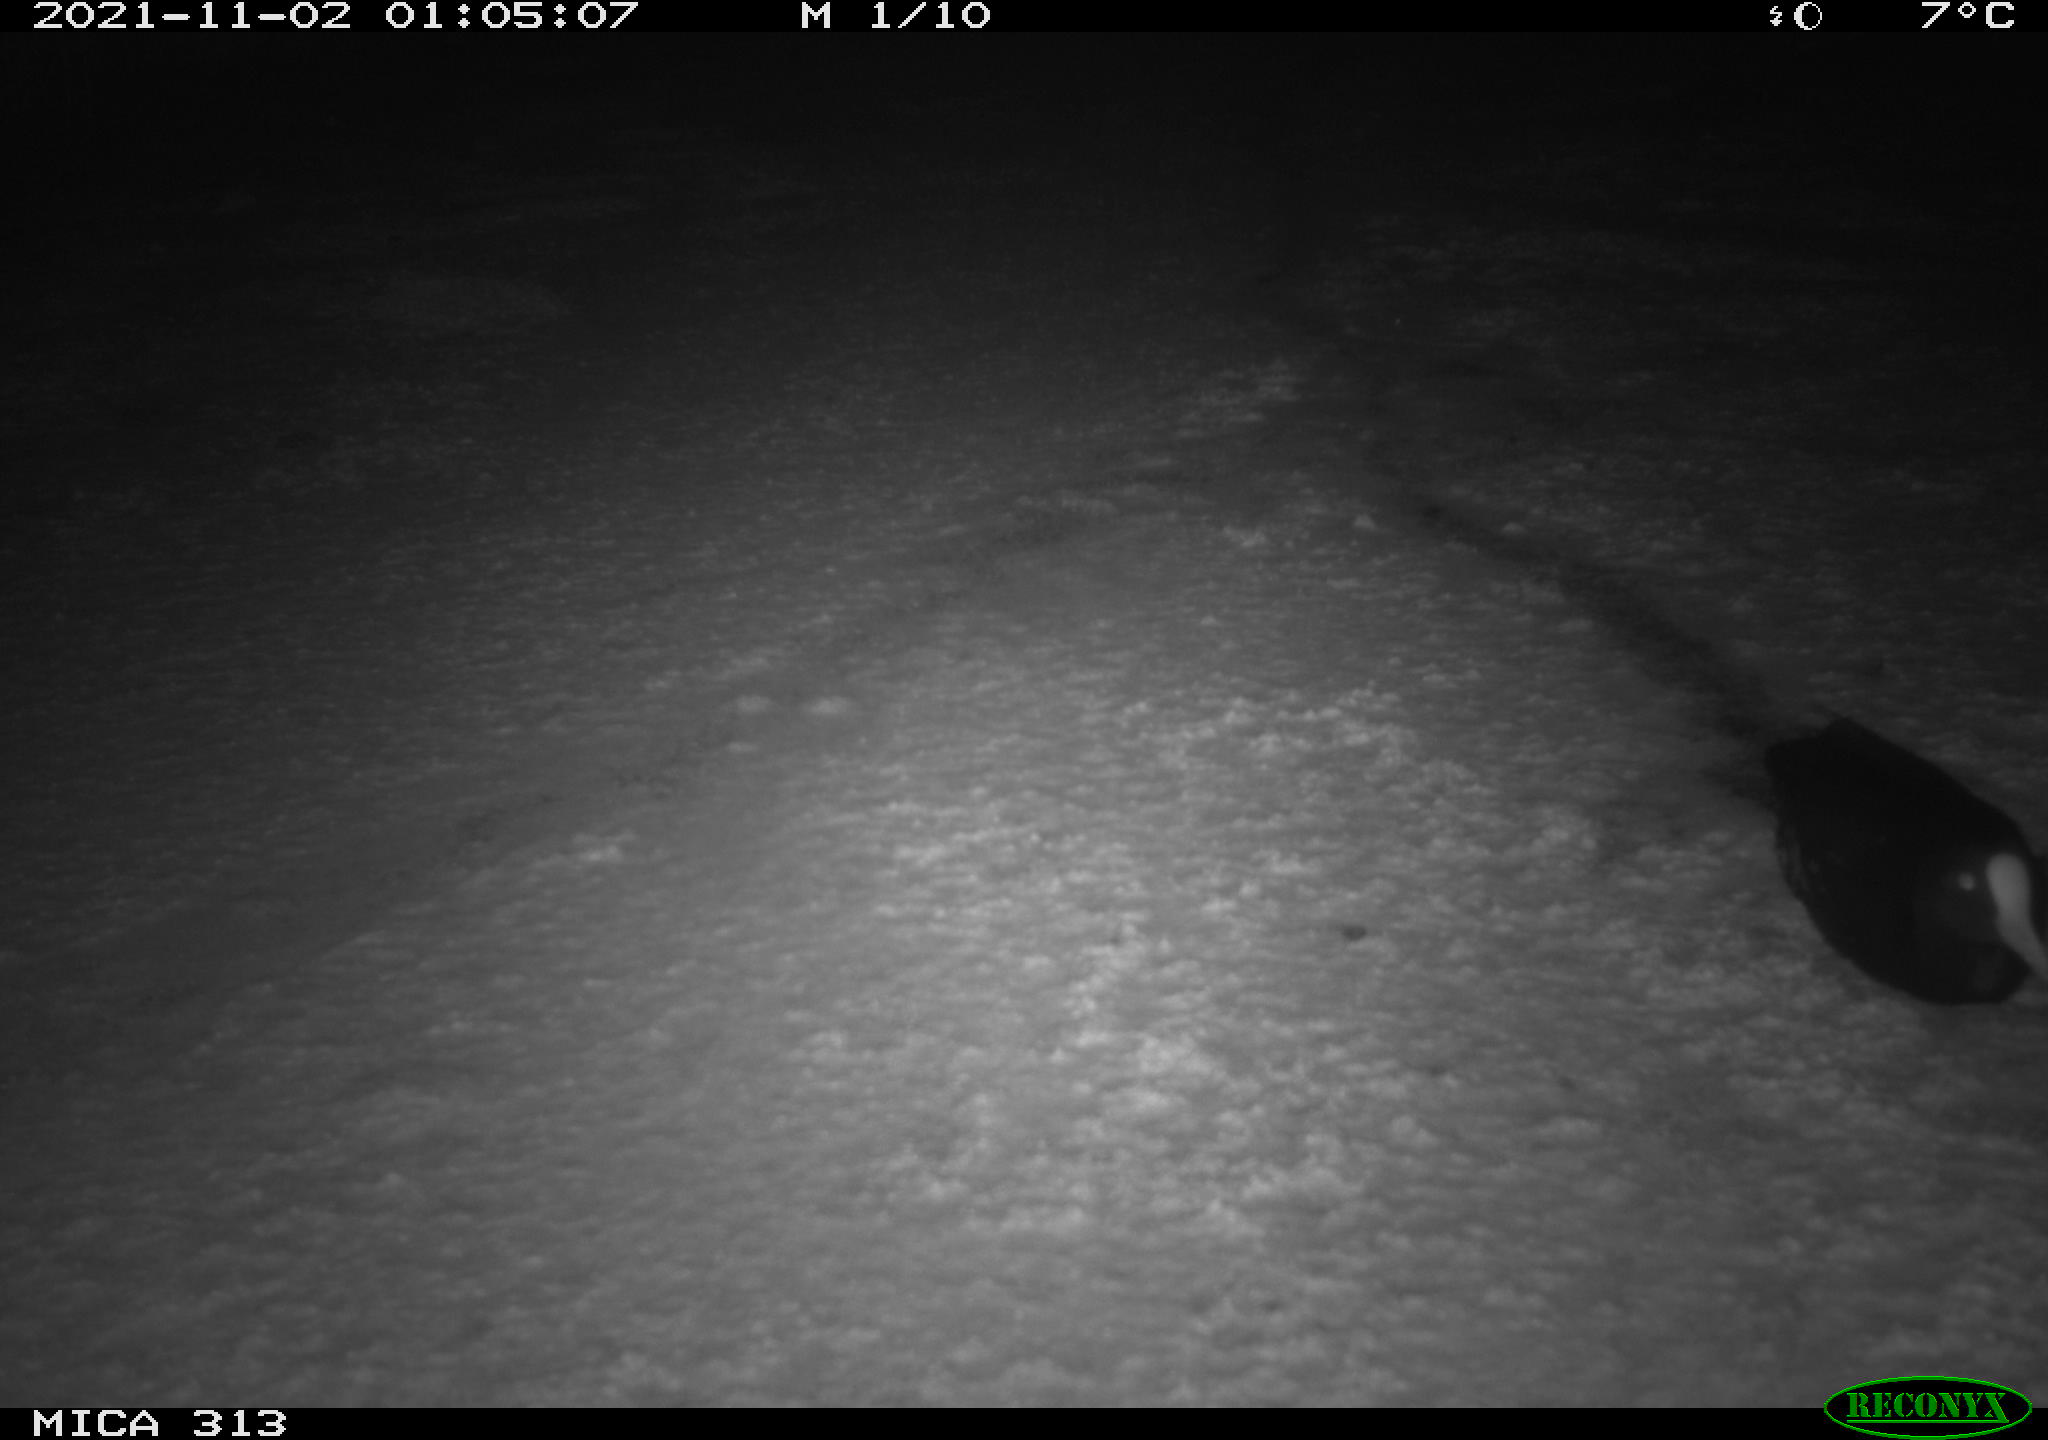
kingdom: Animalia
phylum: Chordata
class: Aves
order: Gruiformes
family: Rallidae
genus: Fulica
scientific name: Fulica atra
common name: Eurasian coot
